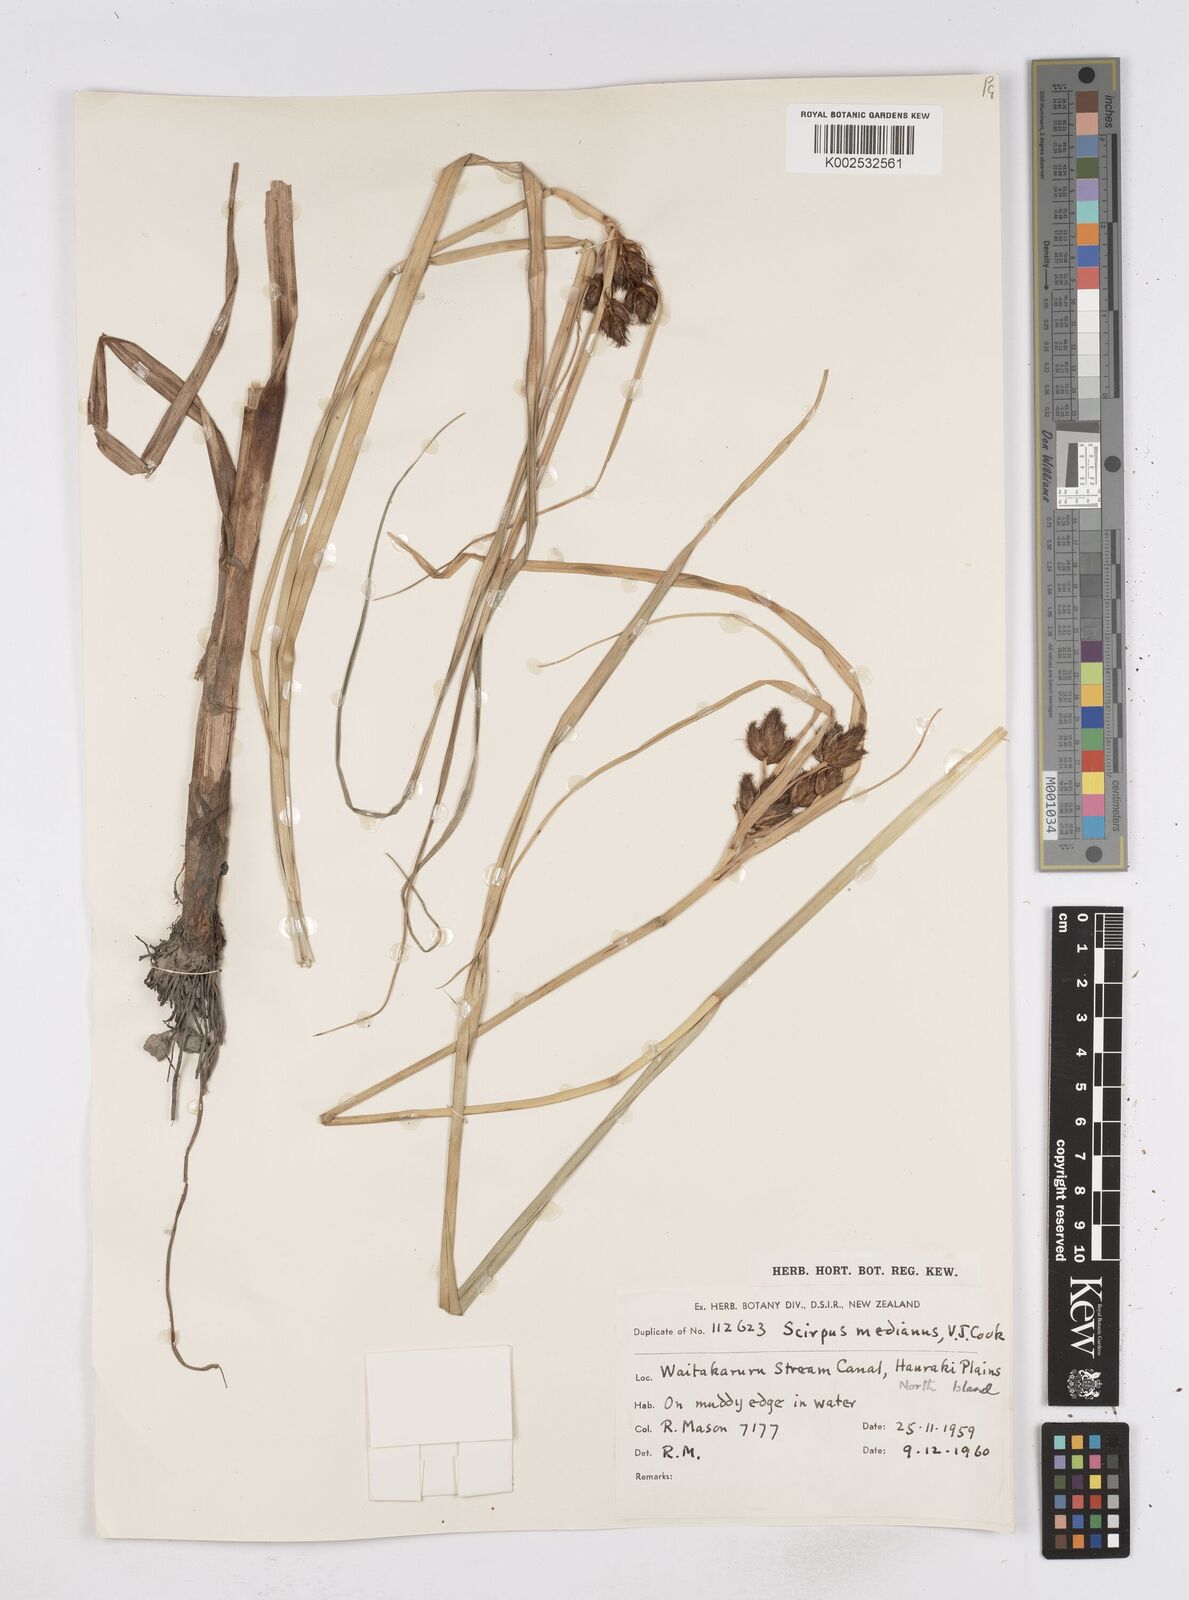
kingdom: Plantae
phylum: Tracheophyta
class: Liliopsida
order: Poales
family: Cyperaceae
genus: Bolboschoenus
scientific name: Bolboschoenus medianus
